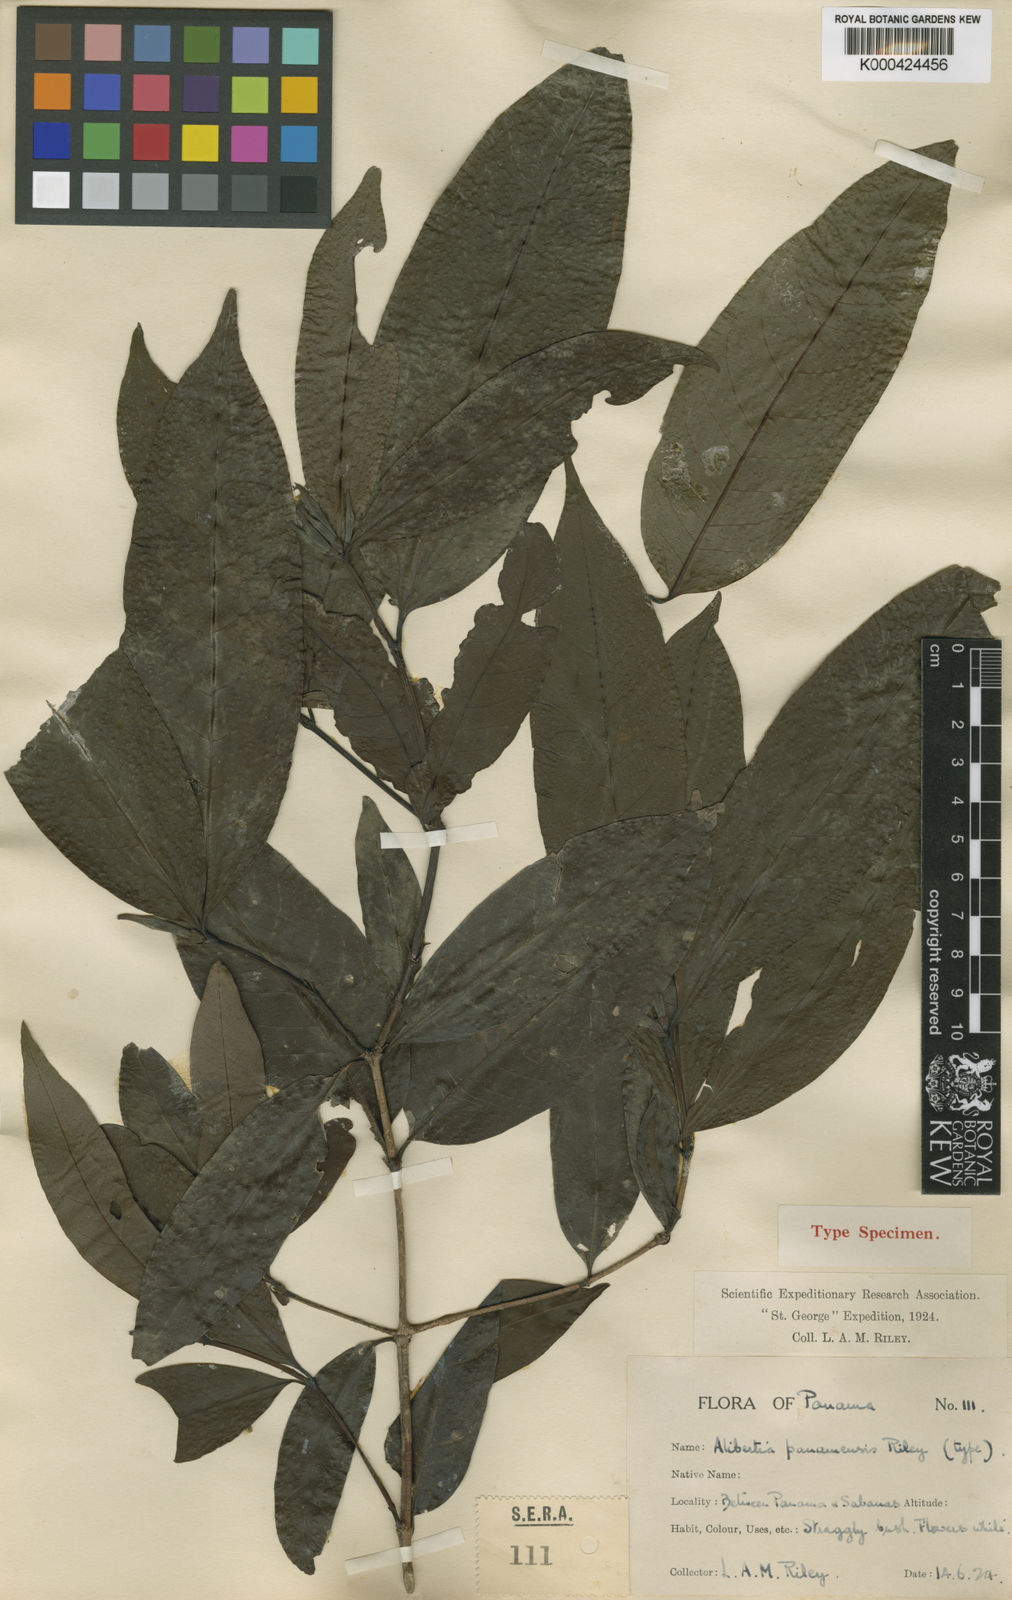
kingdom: Plantae
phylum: Tracheophyta
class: Magnoliopsida
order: Gentianales
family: Rubiaceae
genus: Alibertia
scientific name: Alibertia edulis
